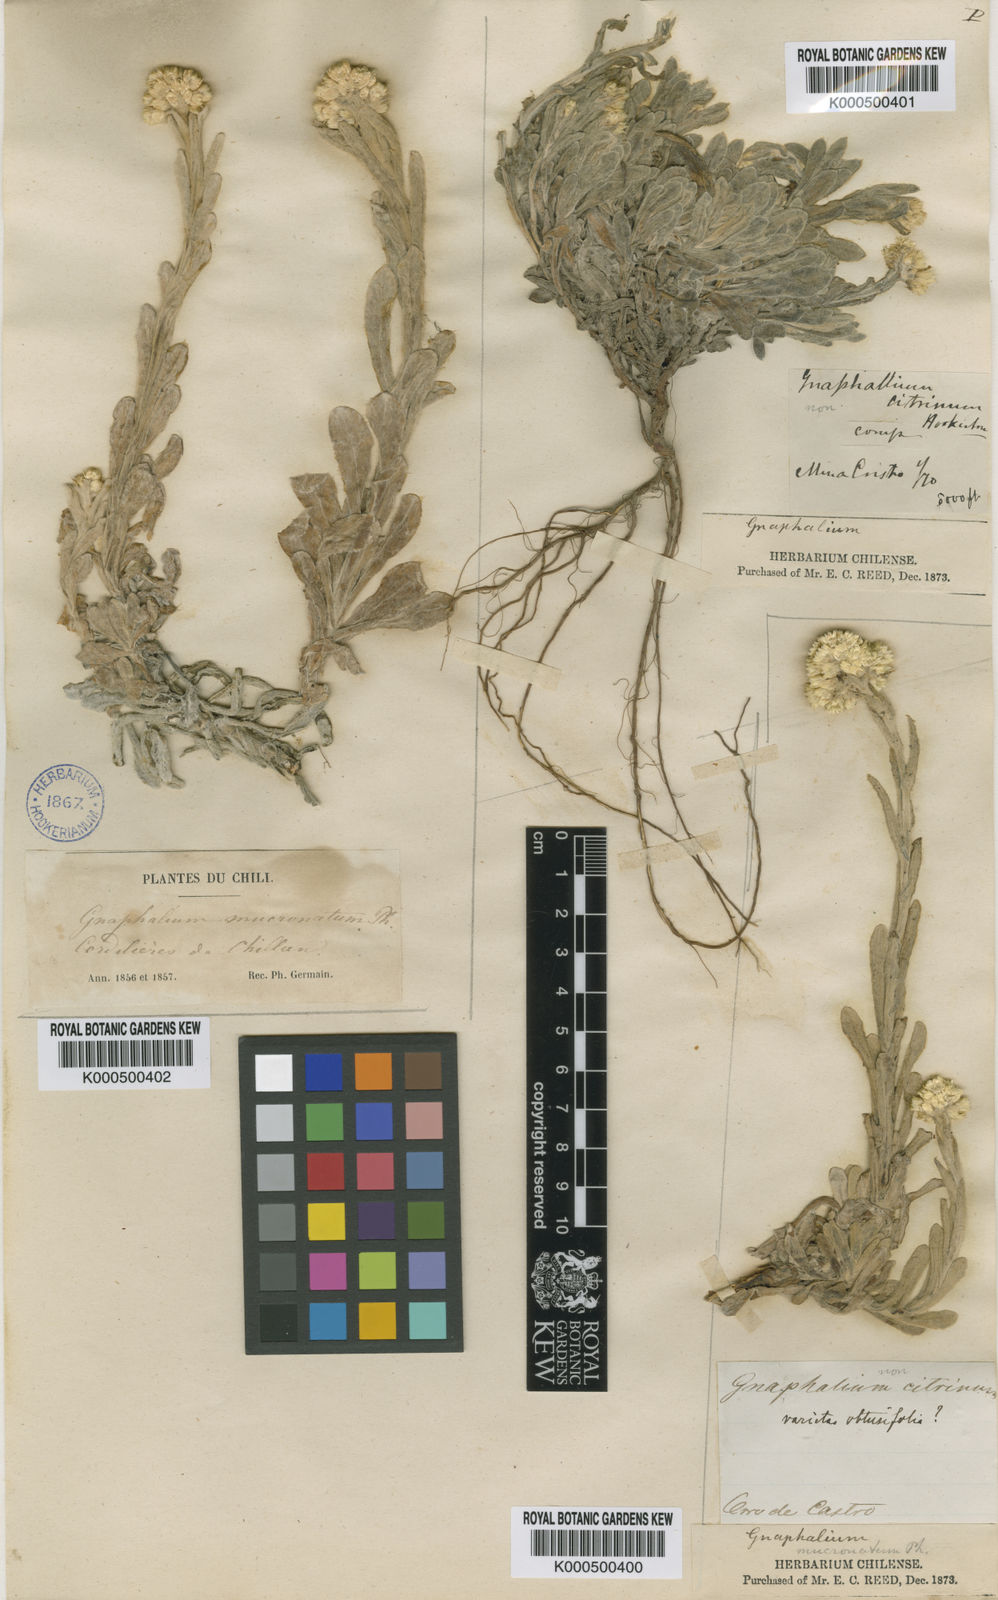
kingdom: Plantae
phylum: Tracheophyta
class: Magnoliopsida
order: Asterales
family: Asteraceae
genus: Gamochaeta
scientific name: Gamochaeta spiciformis
